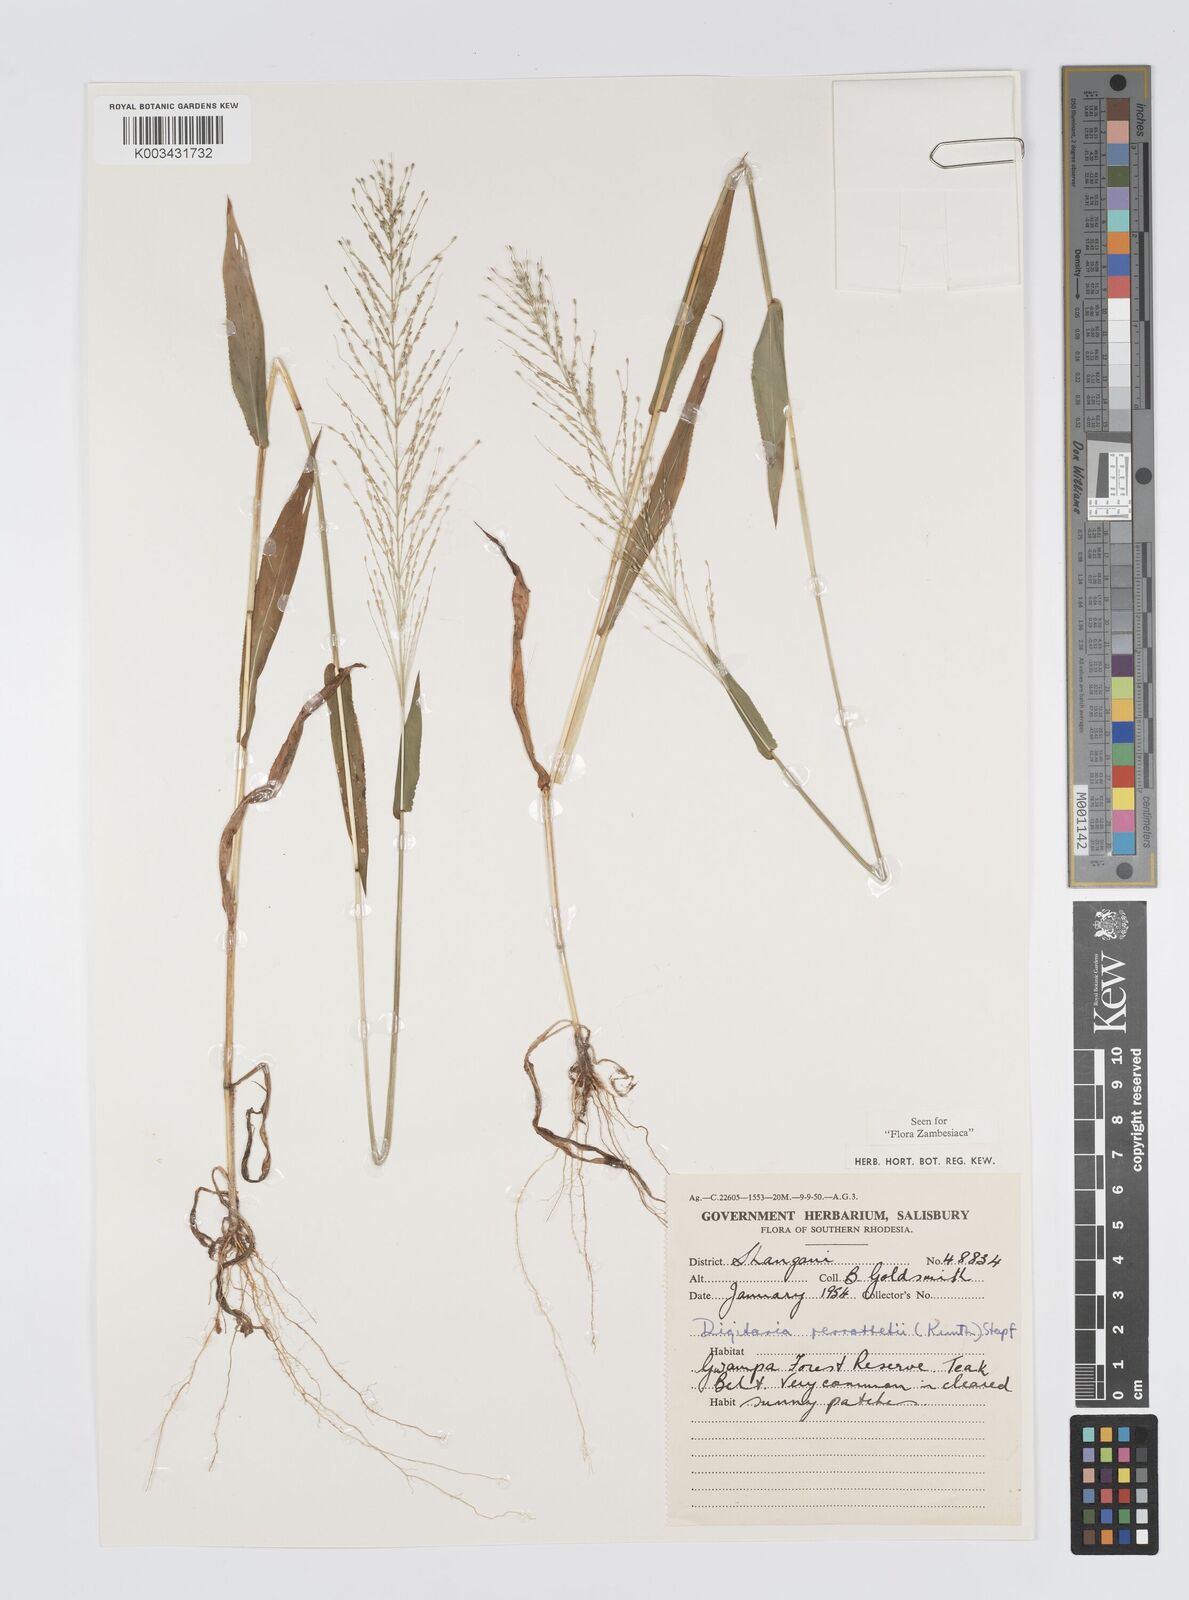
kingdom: Plantae
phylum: Tracheophyta
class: Liliopsida
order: Poales
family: Poaceae
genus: Digitaria
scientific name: Digitaria perrottetii
